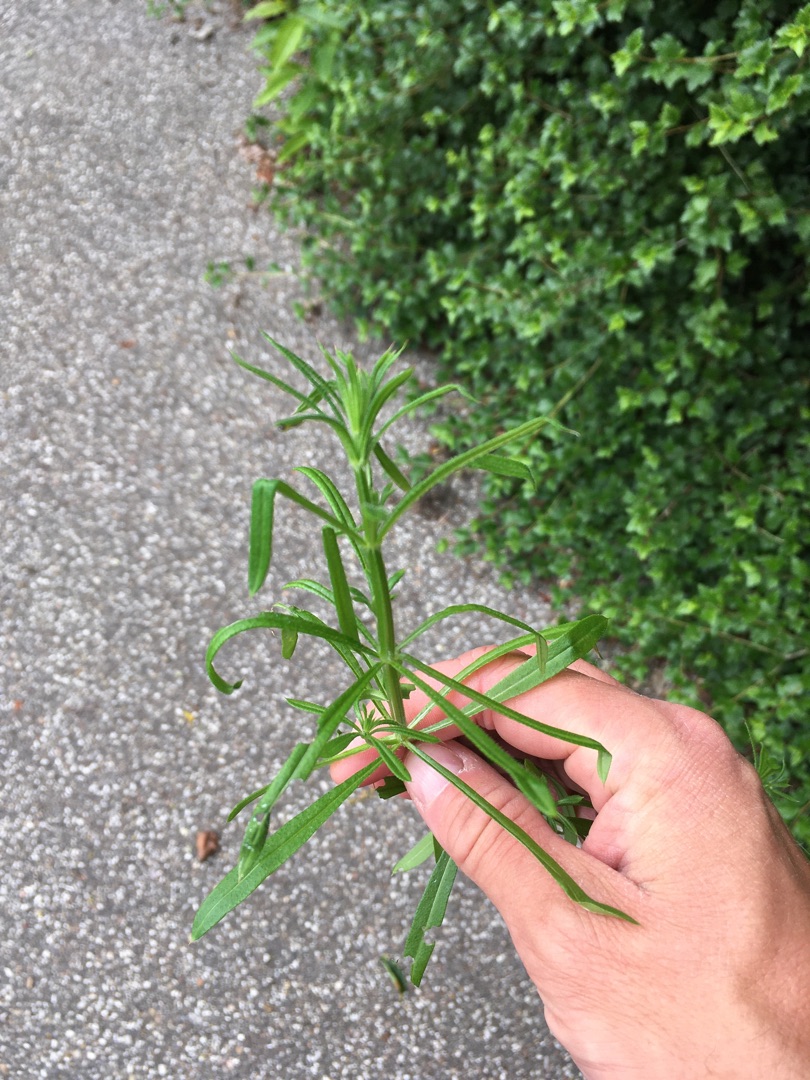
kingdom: Plantae
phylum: Tracheophyta
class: Magnoliopsida
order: Gentianales
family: Rubiaceae
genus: Galium
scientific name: Galium aparine
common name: Burre-snerre
